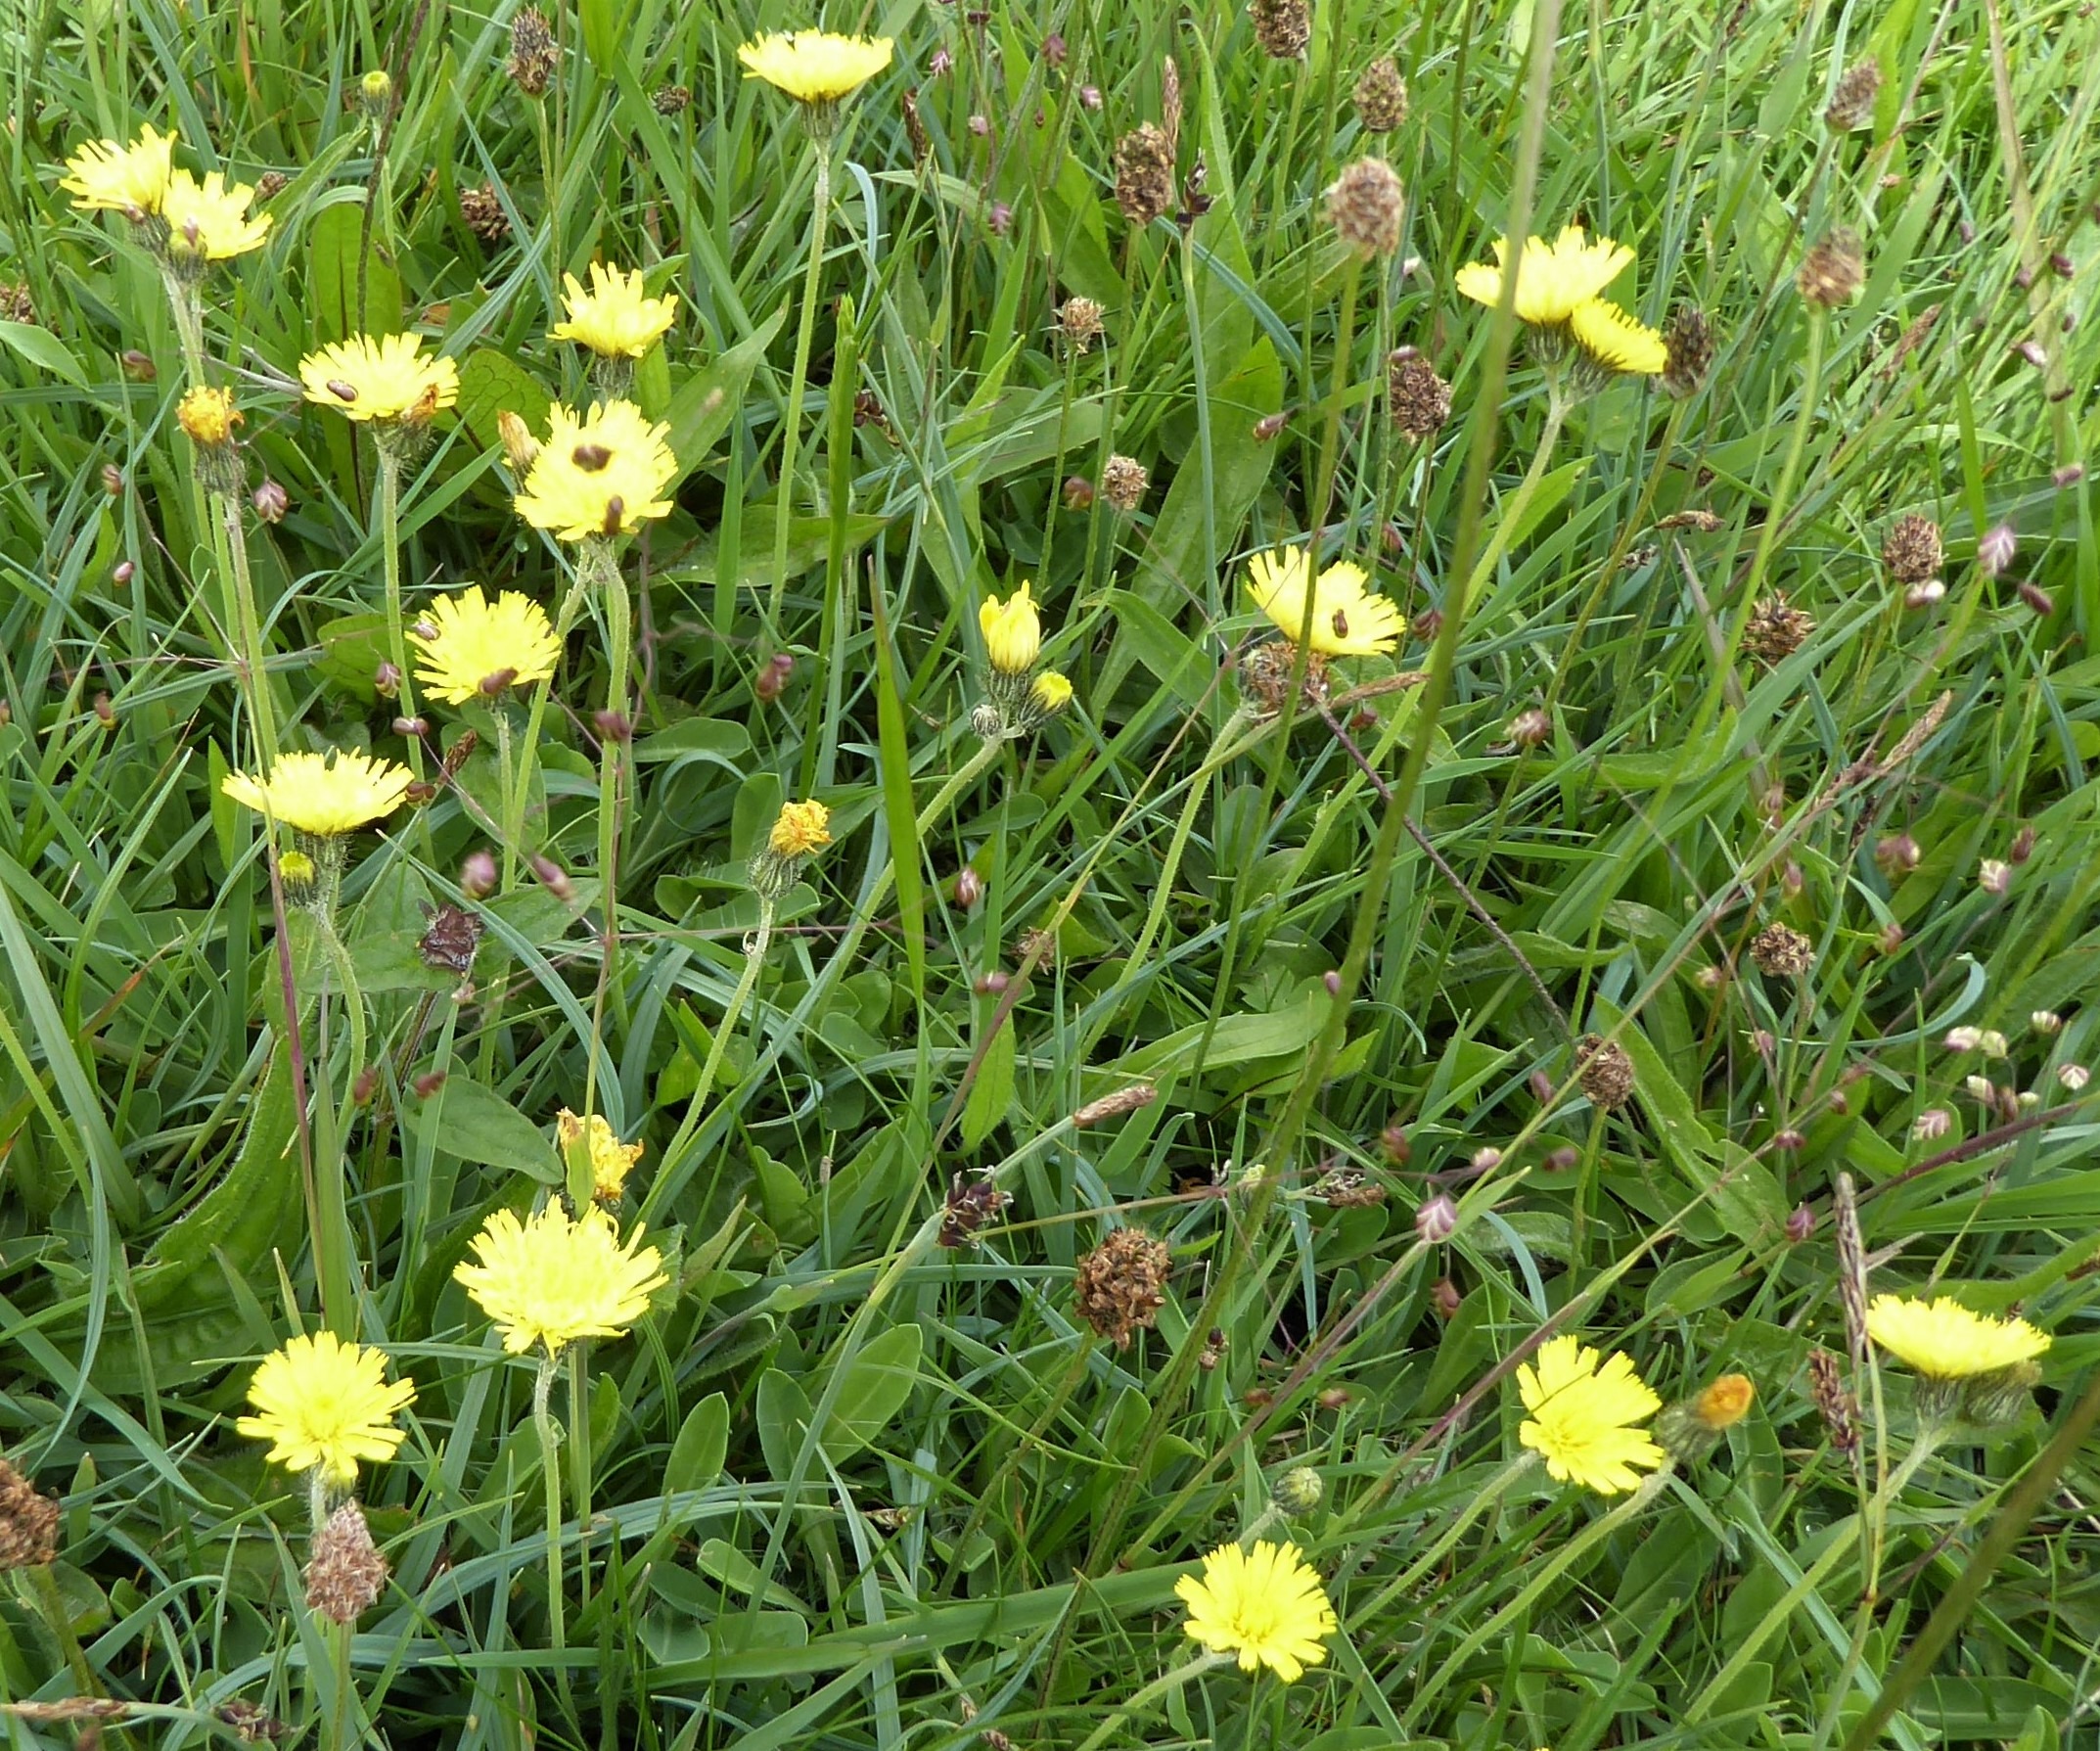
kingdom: Plantae
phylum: Tracheophyta
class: Magnoliopsida
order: Asterales
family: Asteraceae
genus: Pilosella
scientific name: Pilosella lactucella
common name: Lancetbladet høgeurt
